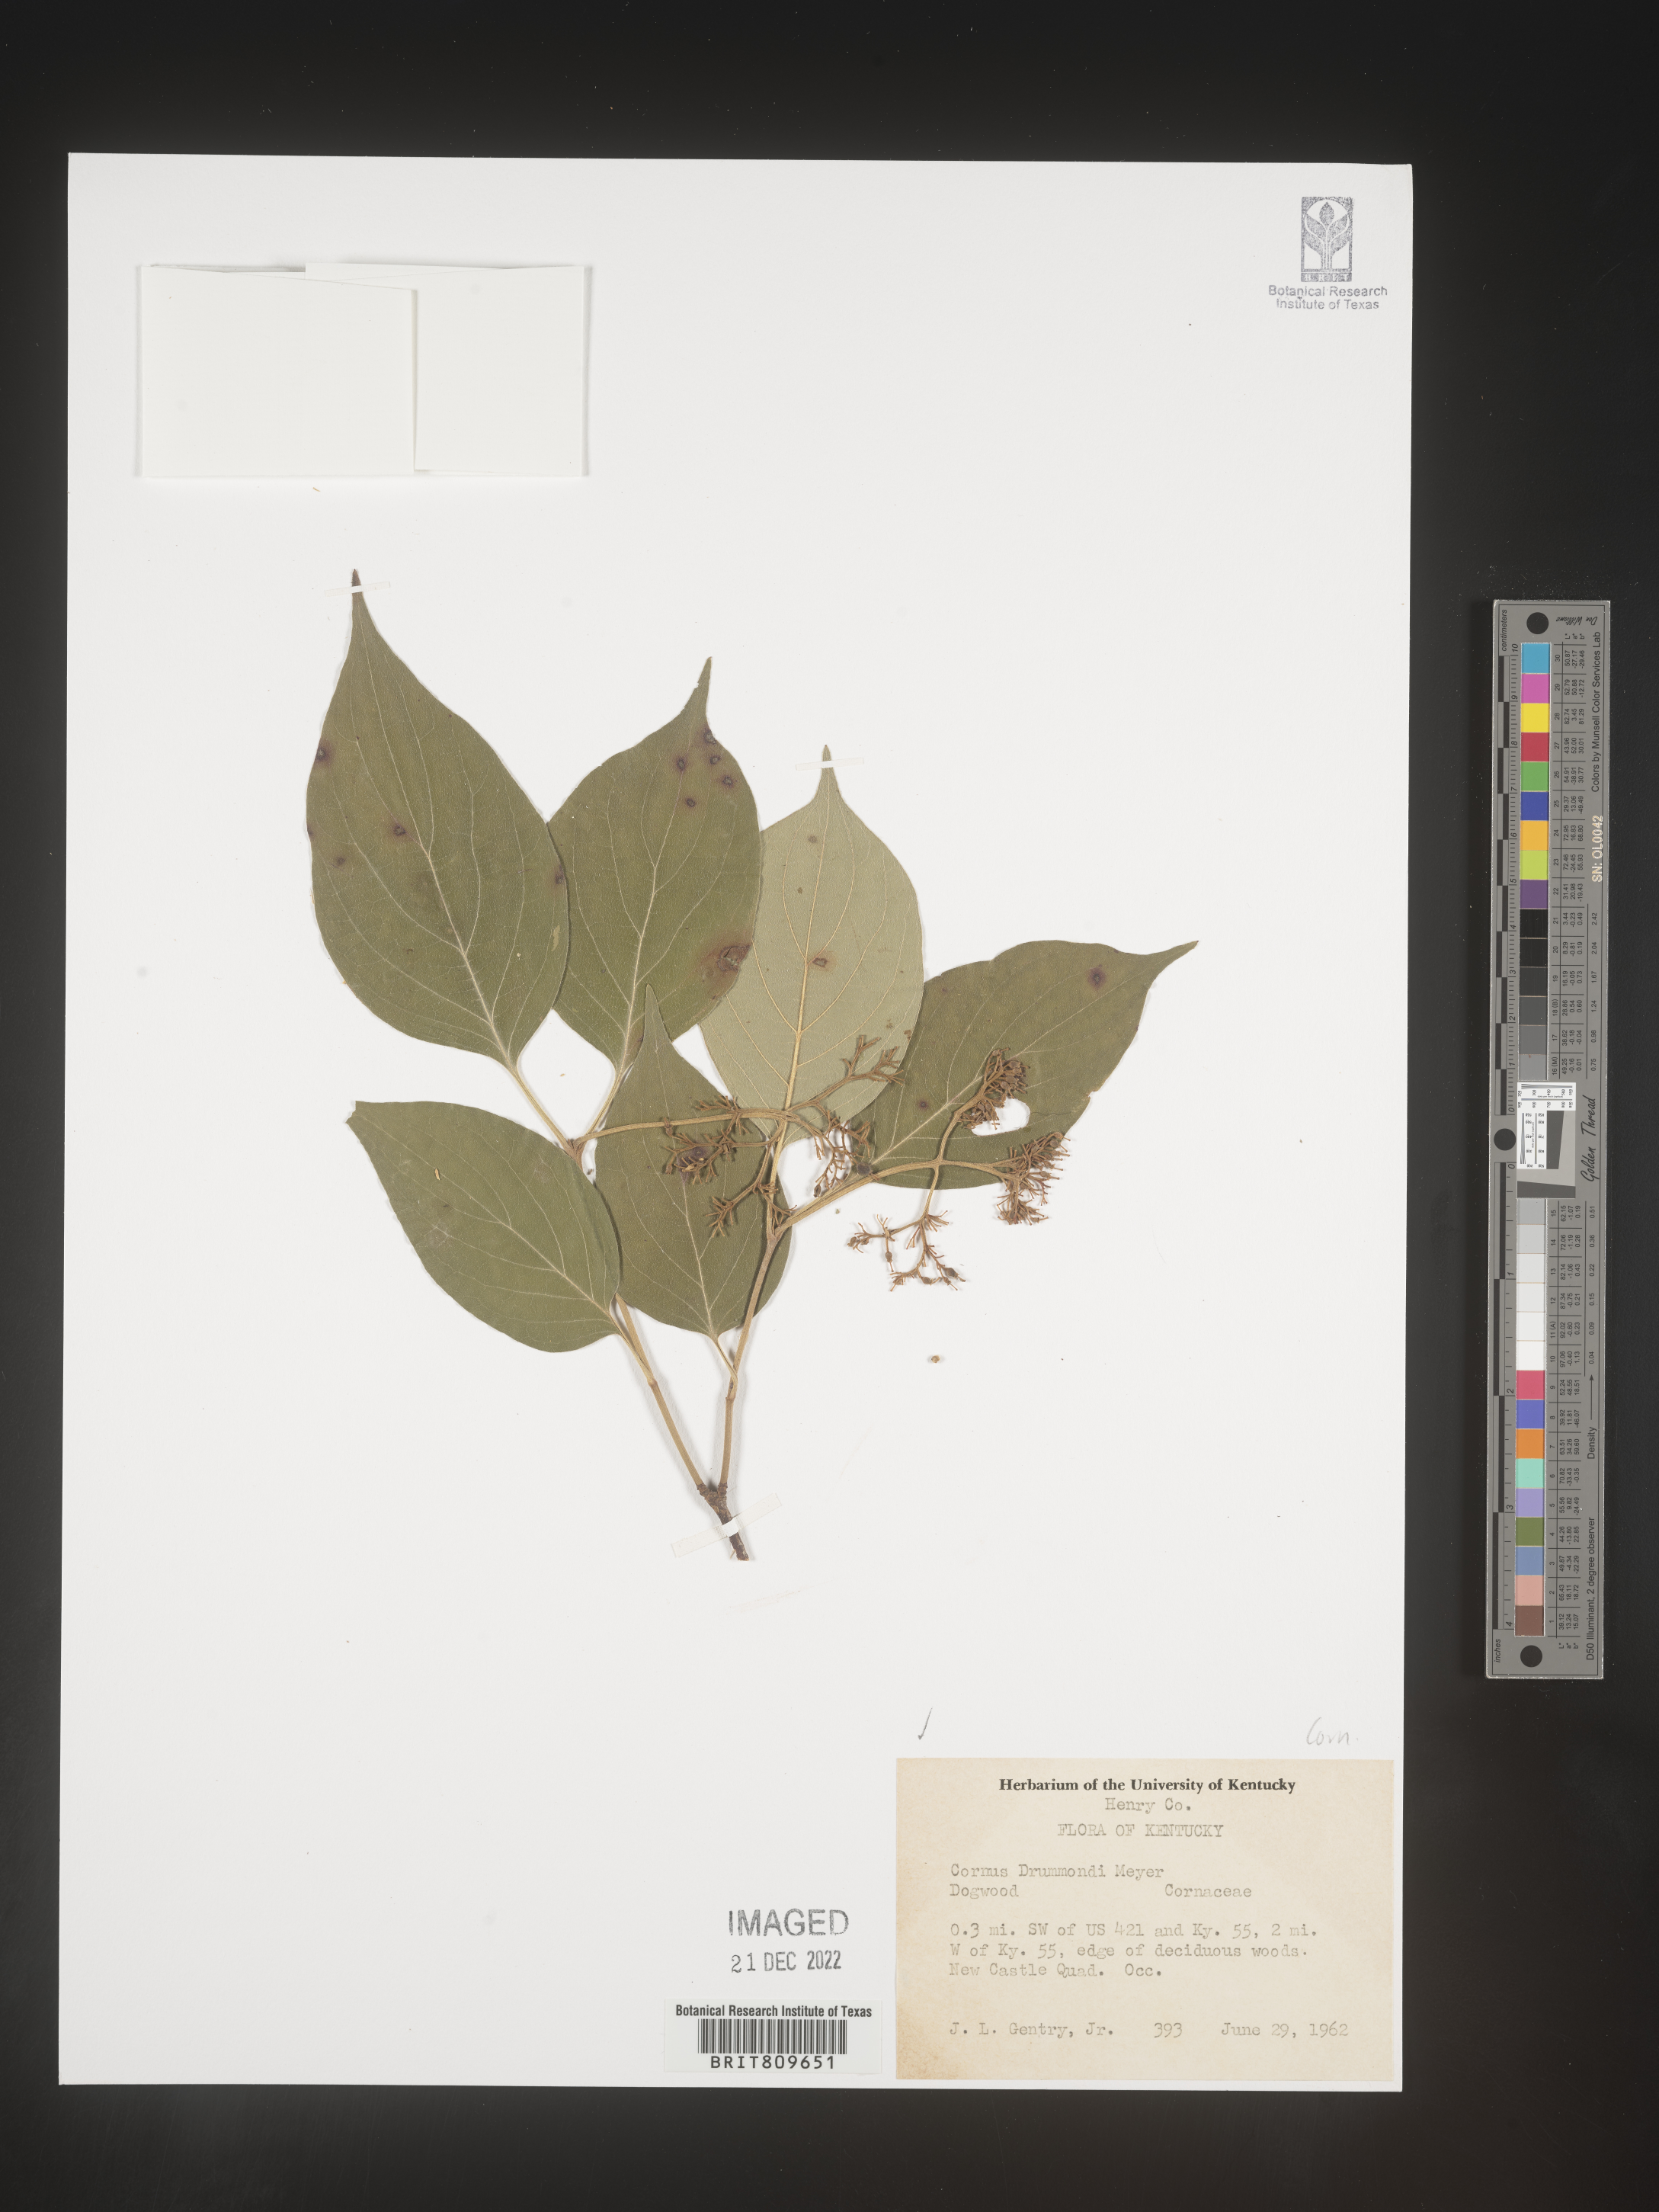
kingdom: Plantae
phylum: Tracheophyta
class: Magnoliopsida
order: Cornales
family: Cornaceae
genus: Cornus
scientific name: Cornus drummondii
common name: Rough-leaf dogwood
